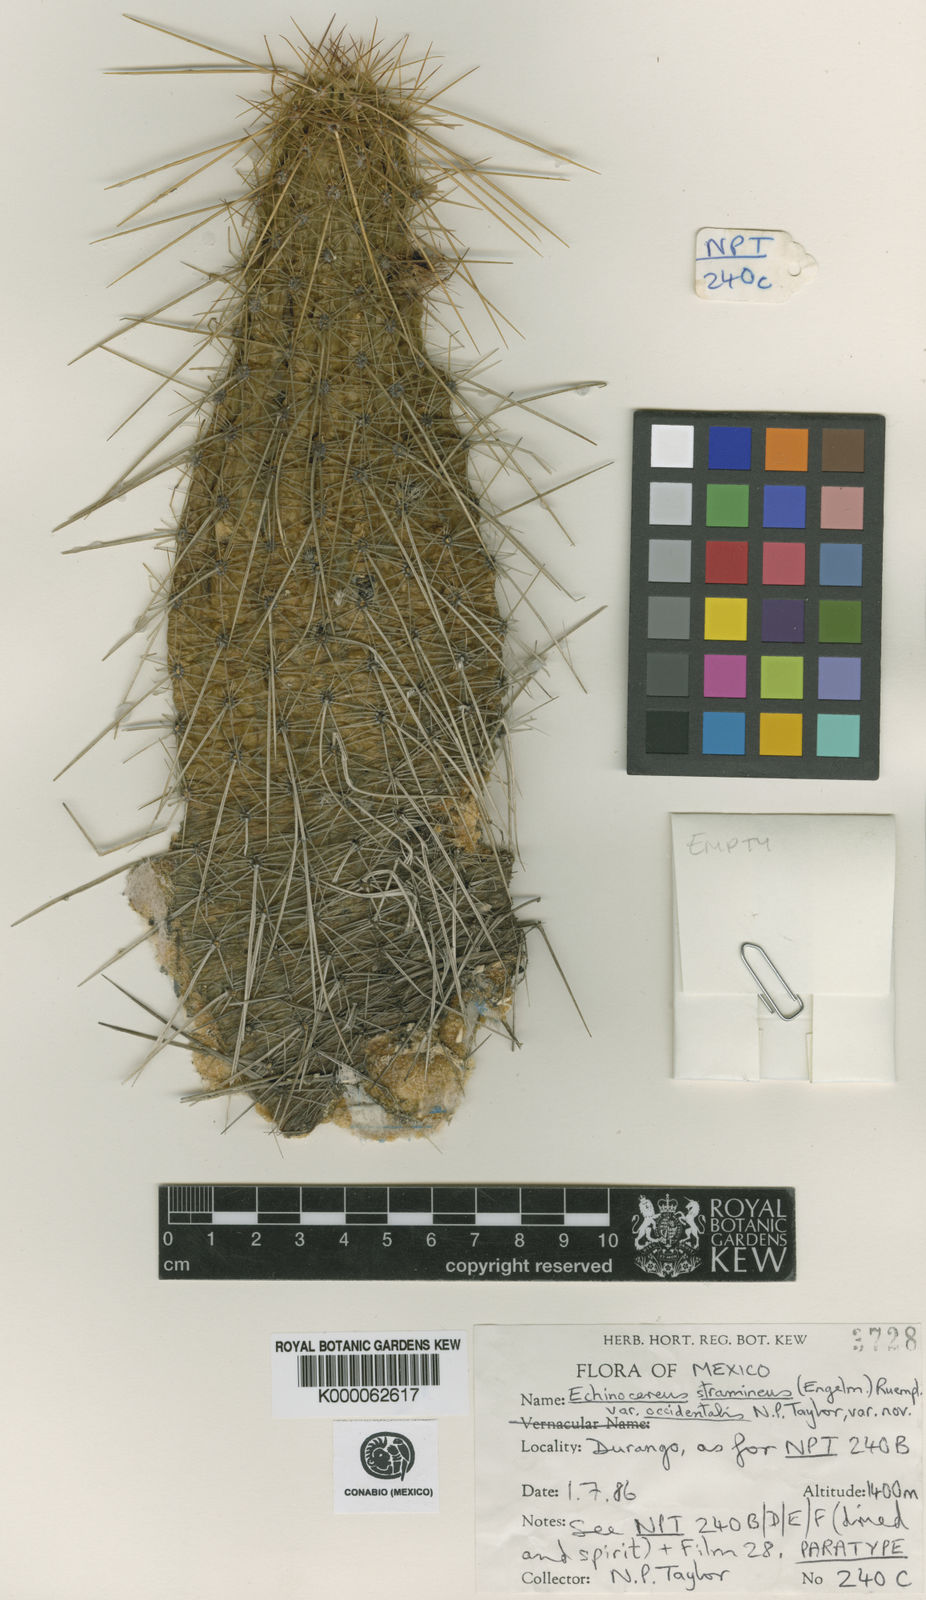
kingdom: Plantae
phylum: Tracheophyta
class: Magnoliopsida
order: Caryophyllales
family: Cactaceae
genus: Echinocereus
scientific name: Echinocereus
